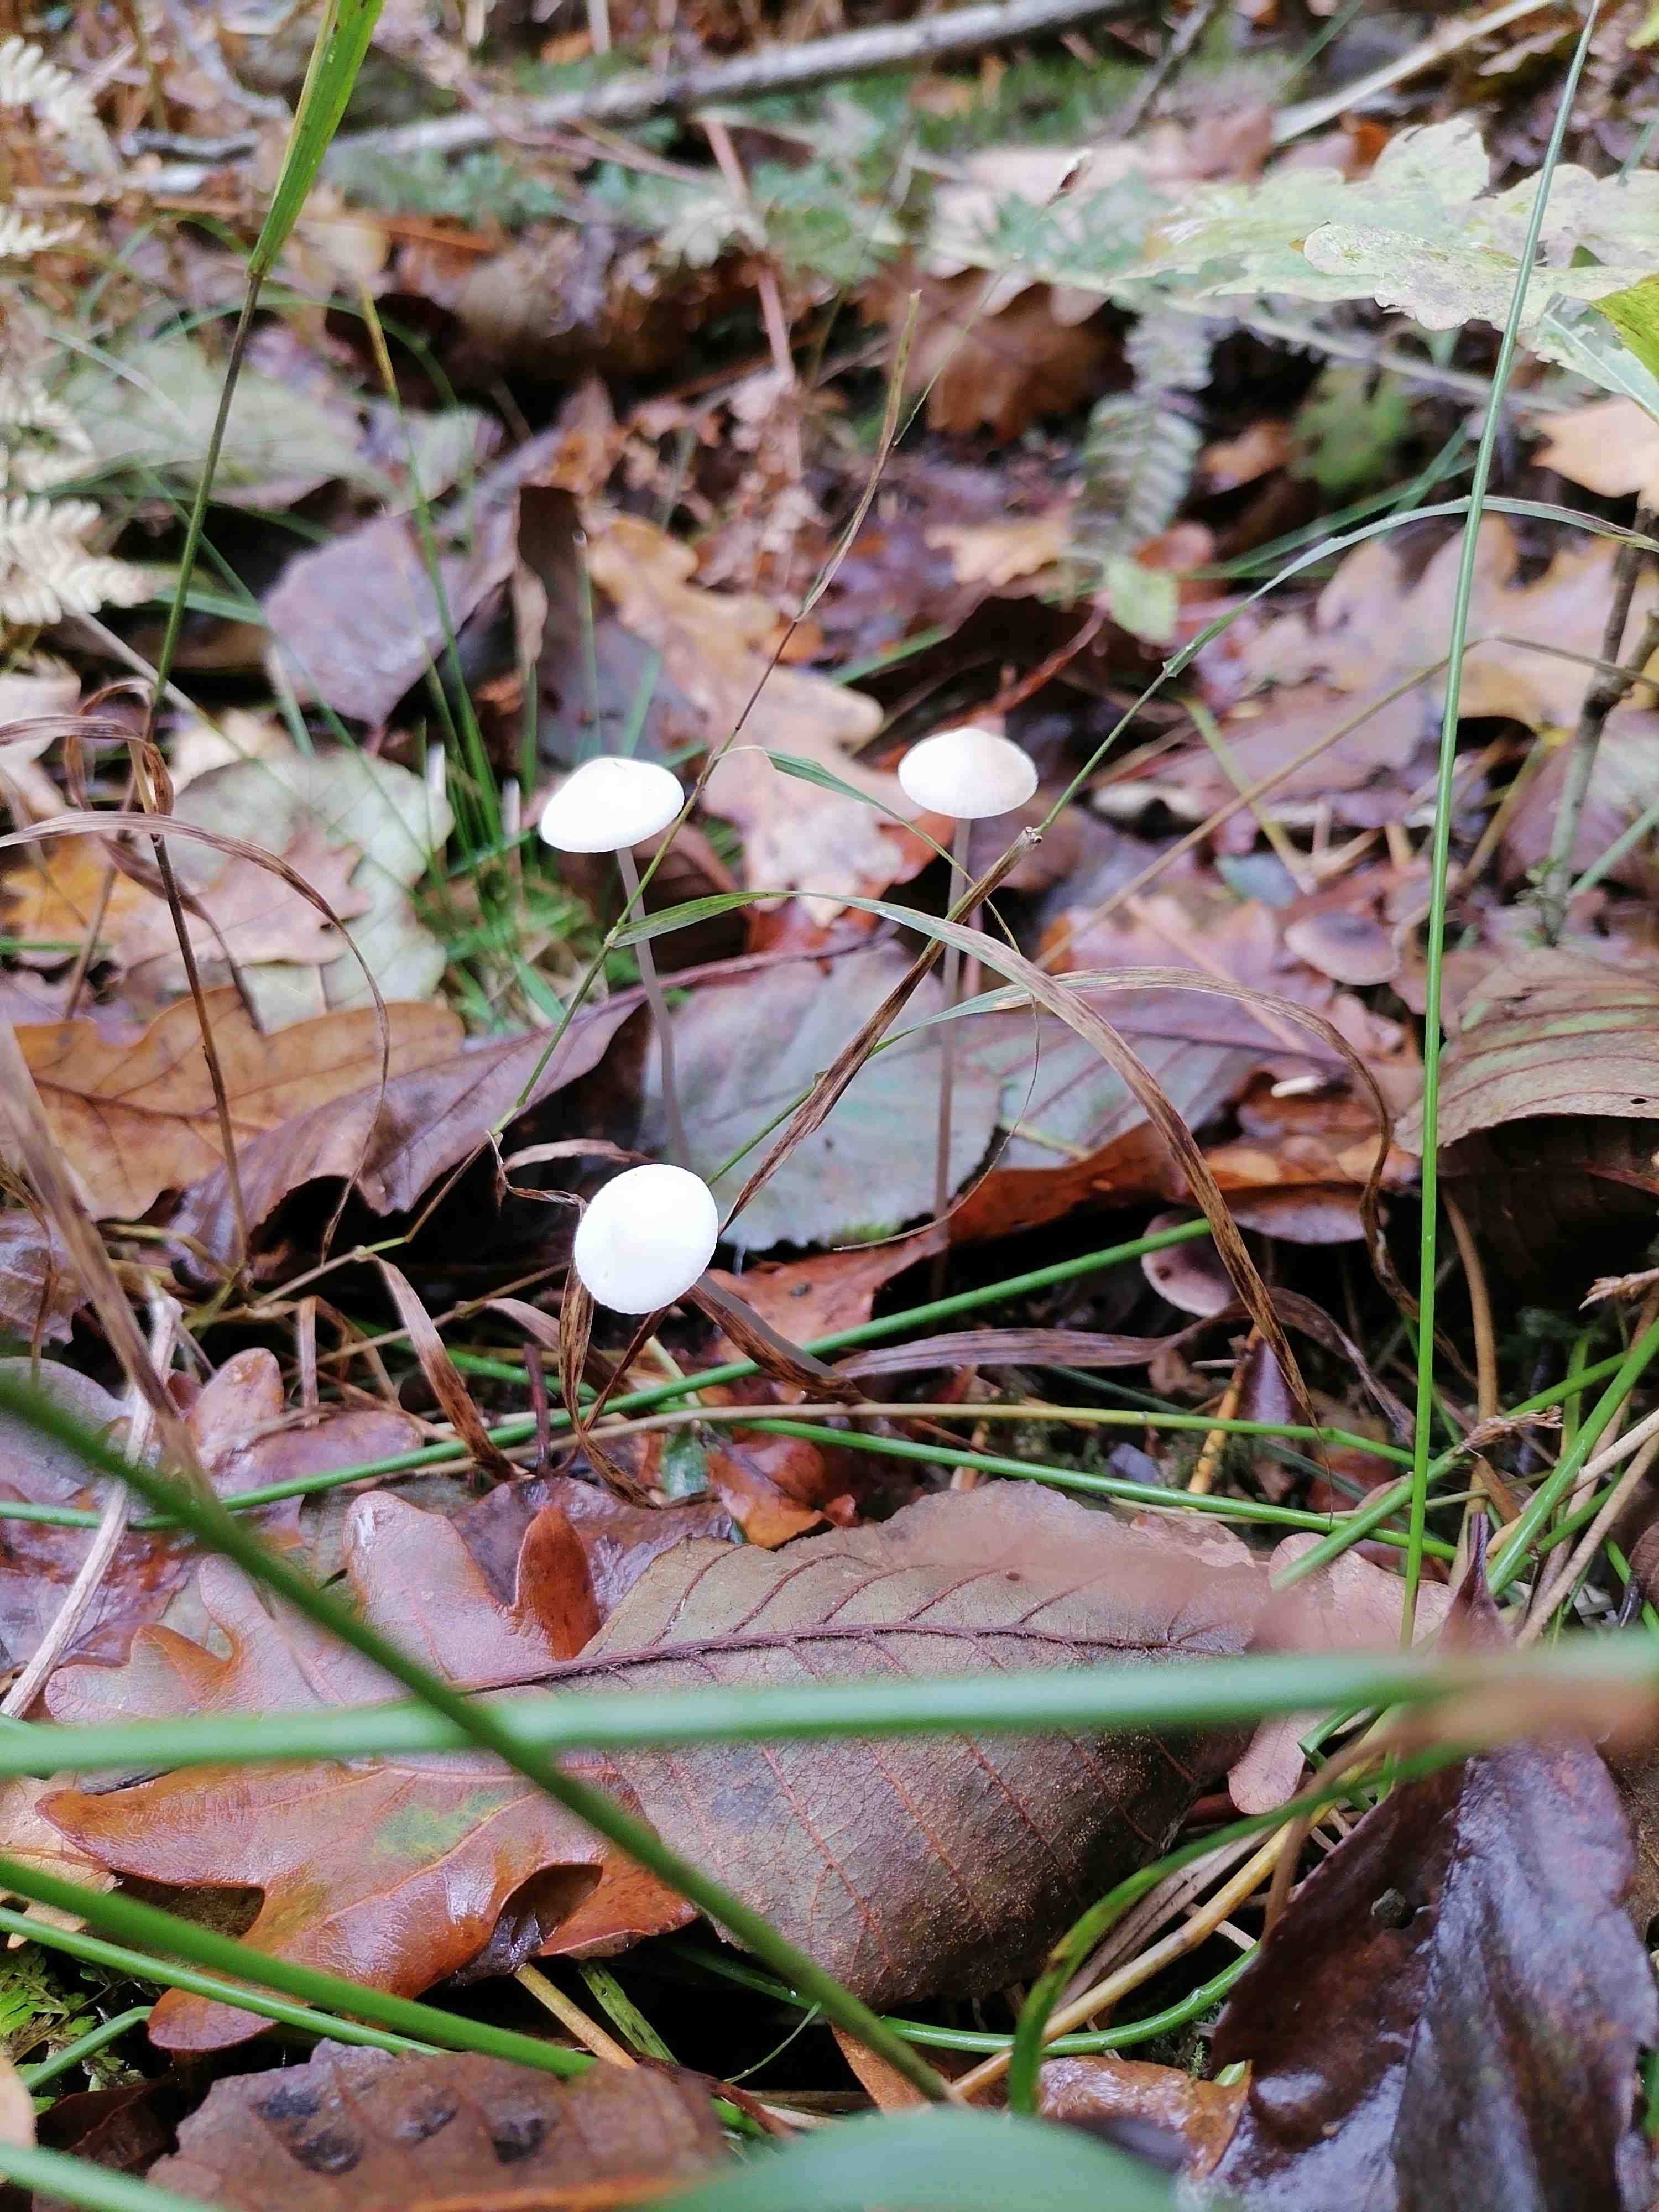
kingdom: Fungi
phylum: Basidiomycota
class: Agaricomycetes
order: Agaricales
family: Mycenaceae
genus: Mycena
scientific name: Mycena
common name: huesvamp
